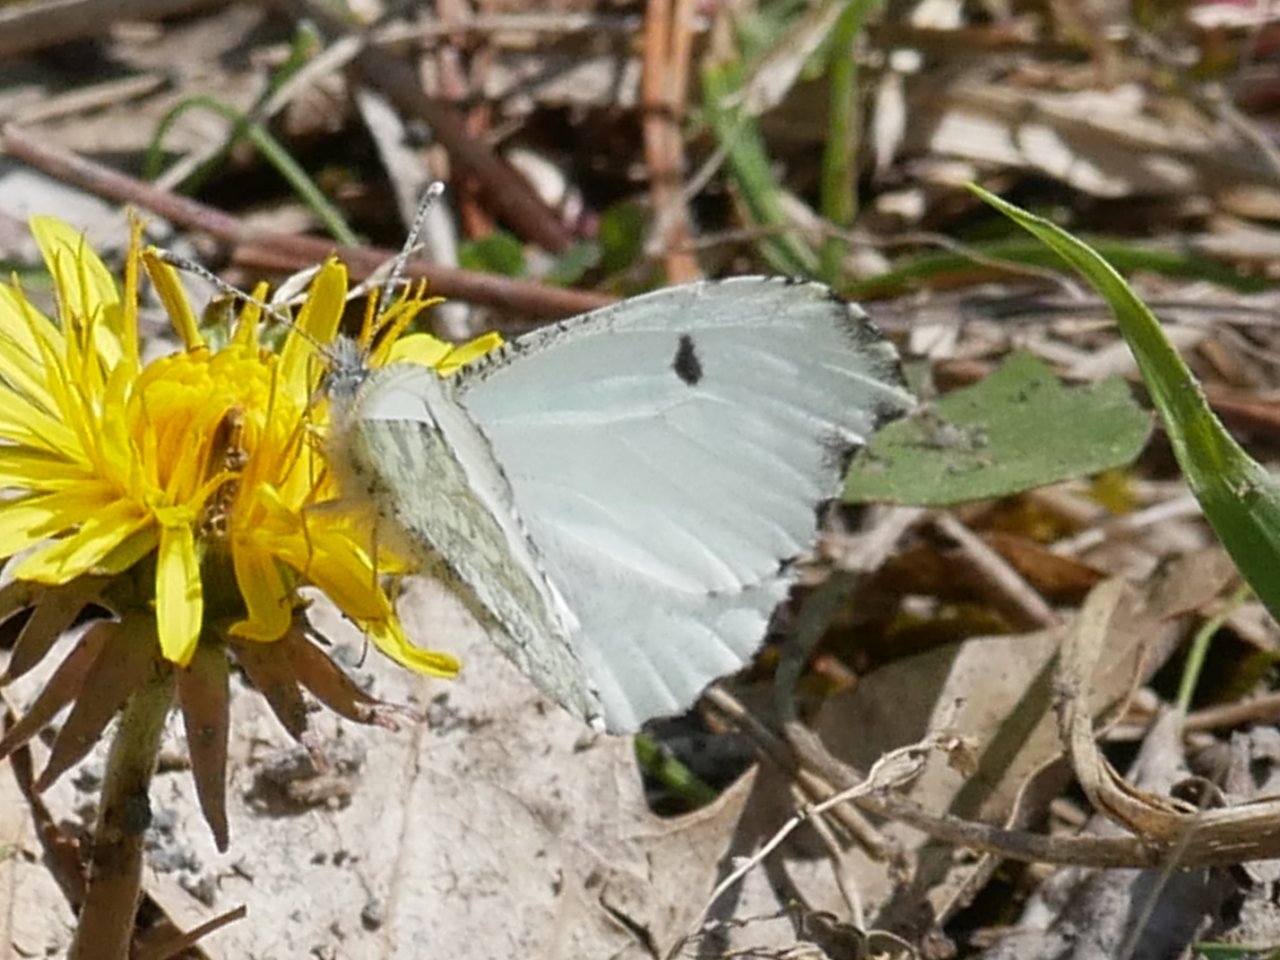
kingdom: Animalia
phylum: Arthropoda
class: Insecta
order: Lepidoptera
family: Pieridae
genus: Anthocharis
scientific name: Anthocharis midea
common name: Falcate Orangetip
